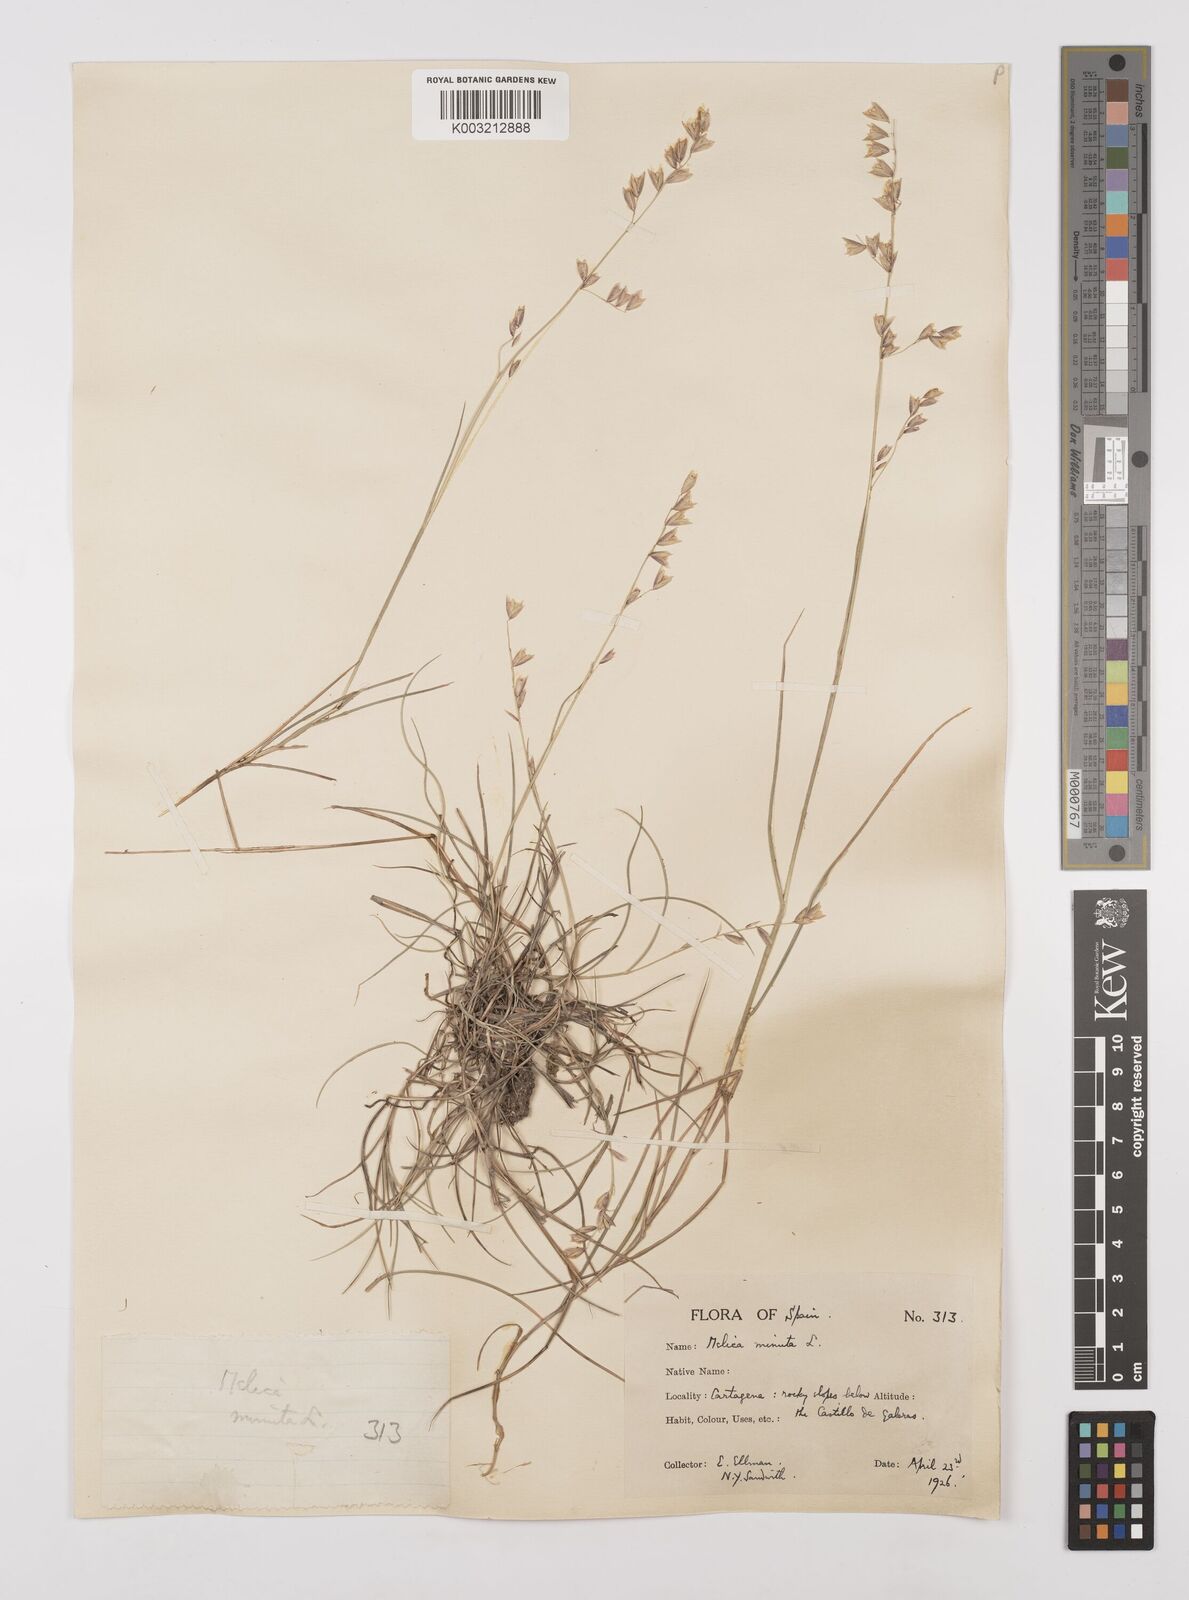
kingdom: Plantae
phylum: Tracheophyta
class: Liliopsida
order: Poales
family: Poaceae
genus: Melica
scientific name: Melica minuta
